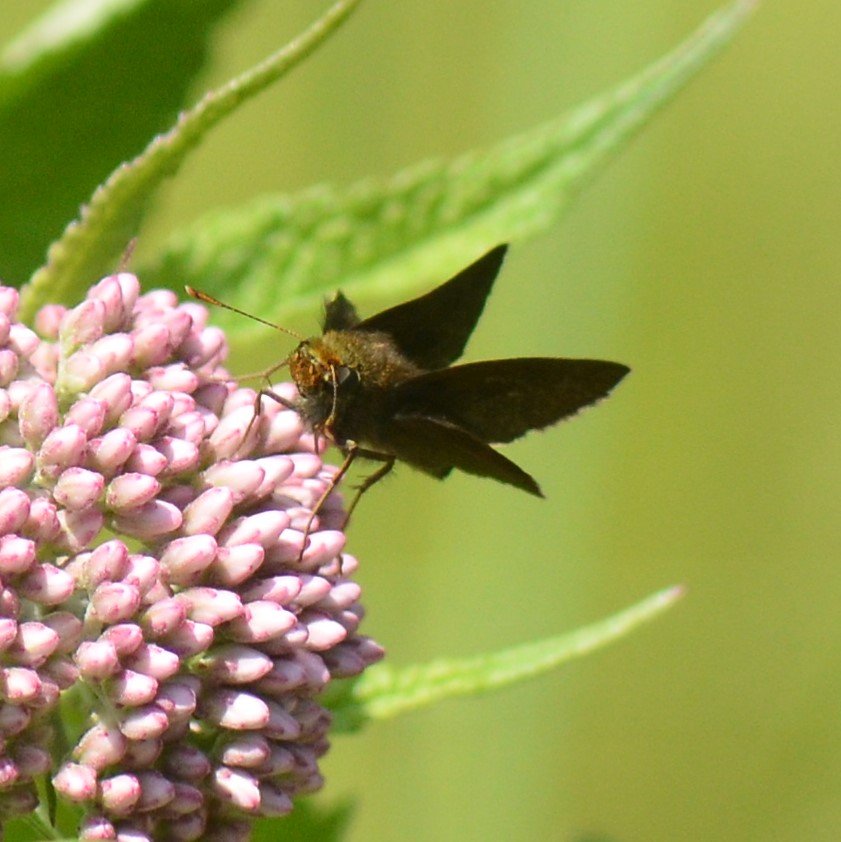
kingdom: Animalia
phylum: Arthropoda
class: Insecta
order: Lepidoptera
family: Hesperiidae
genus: Euphyes
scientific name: Euphyes vestris
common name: Dun Skipper
